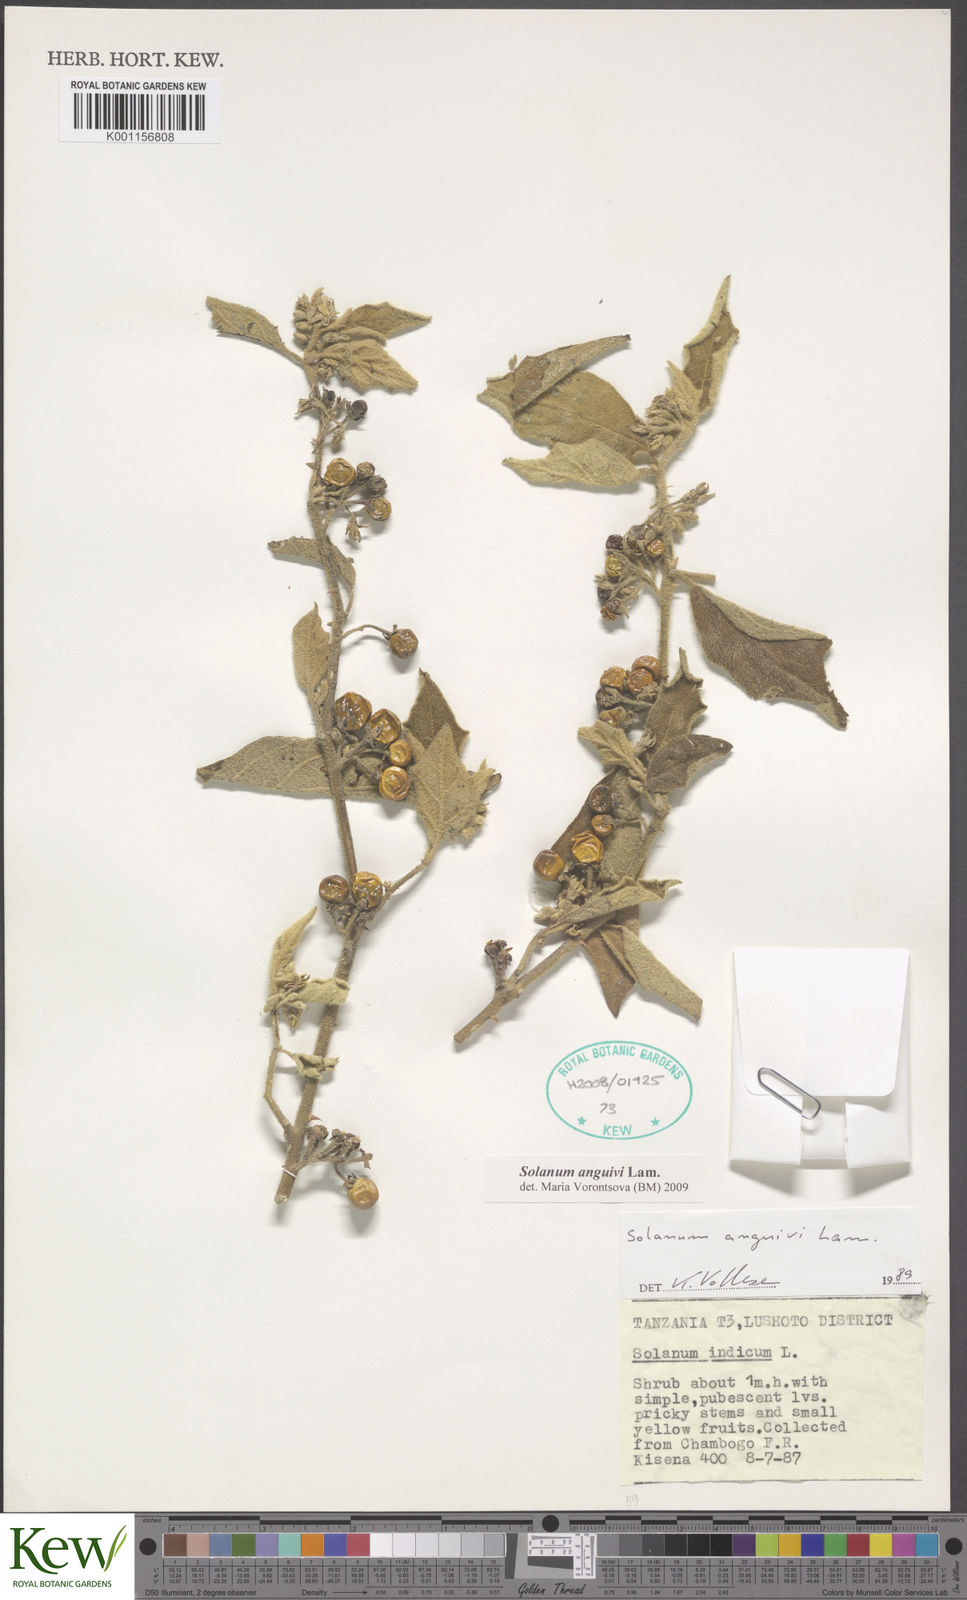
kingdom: Plantae
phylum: Tracheophyta
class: Magnoliopsida
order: Solanales
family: Solanaceae
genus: Solanum
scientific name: Solanum anguivi
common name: Forest bitterberry
